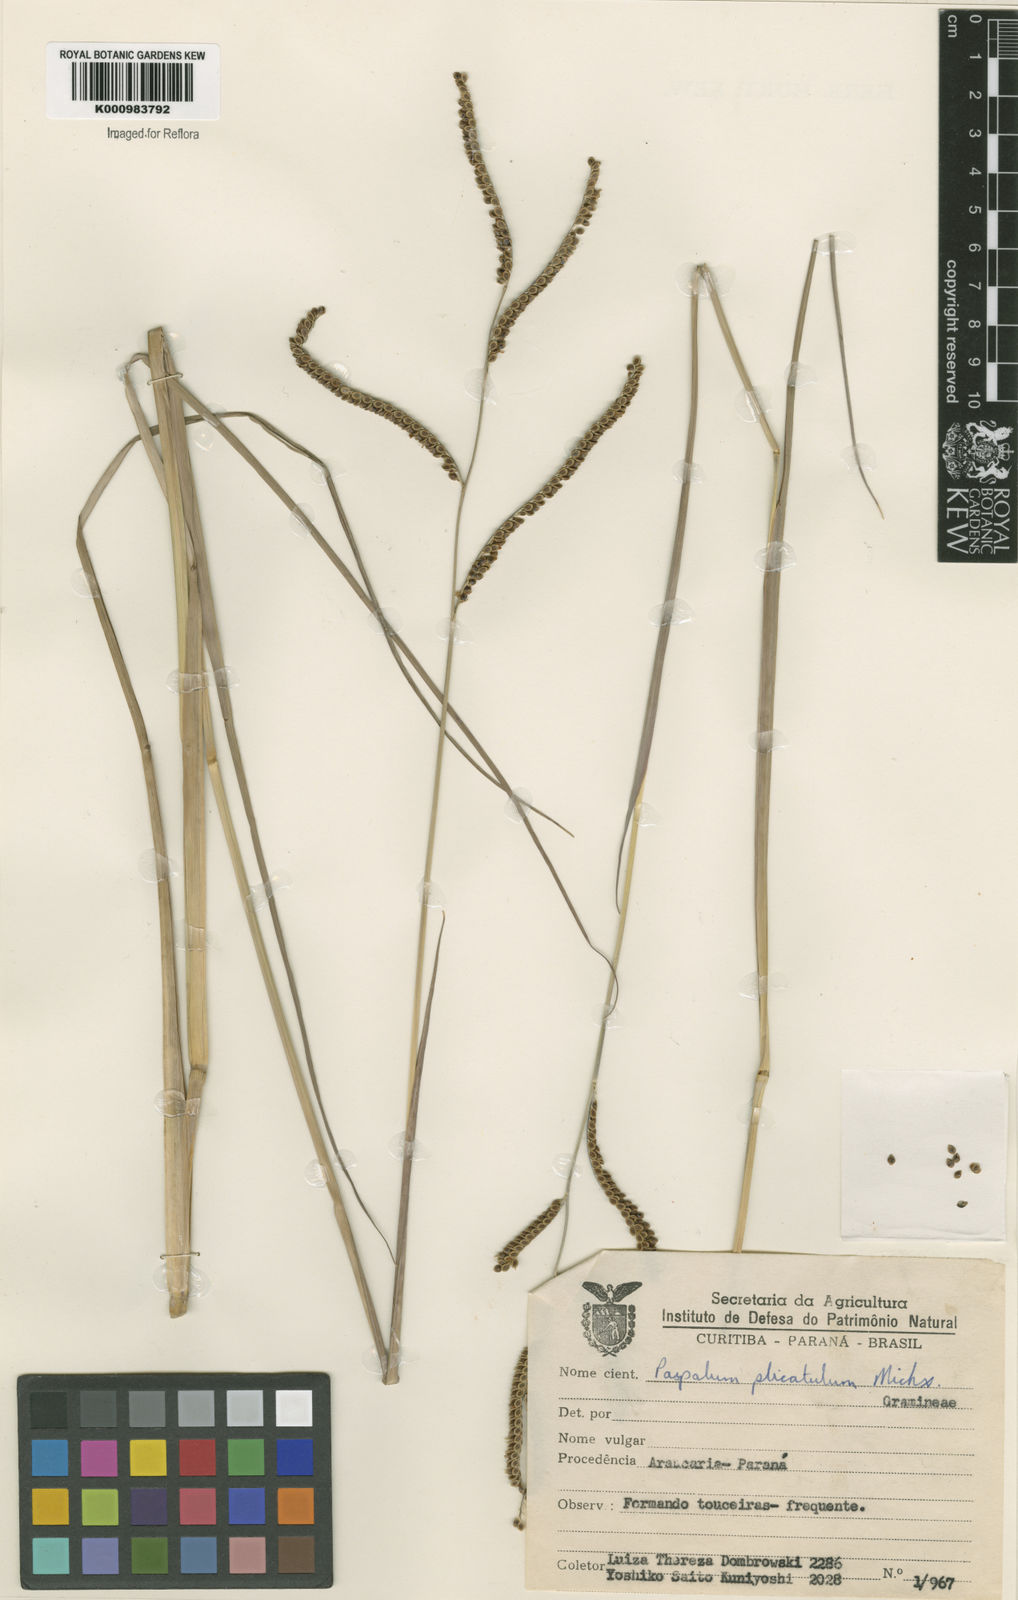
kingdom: Plantae
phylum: Tracheophyta
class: Liliopsida
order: Poales
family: Poaceae
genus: Paspalum
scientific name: Paspalum plicatulum
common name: Top paspalum
